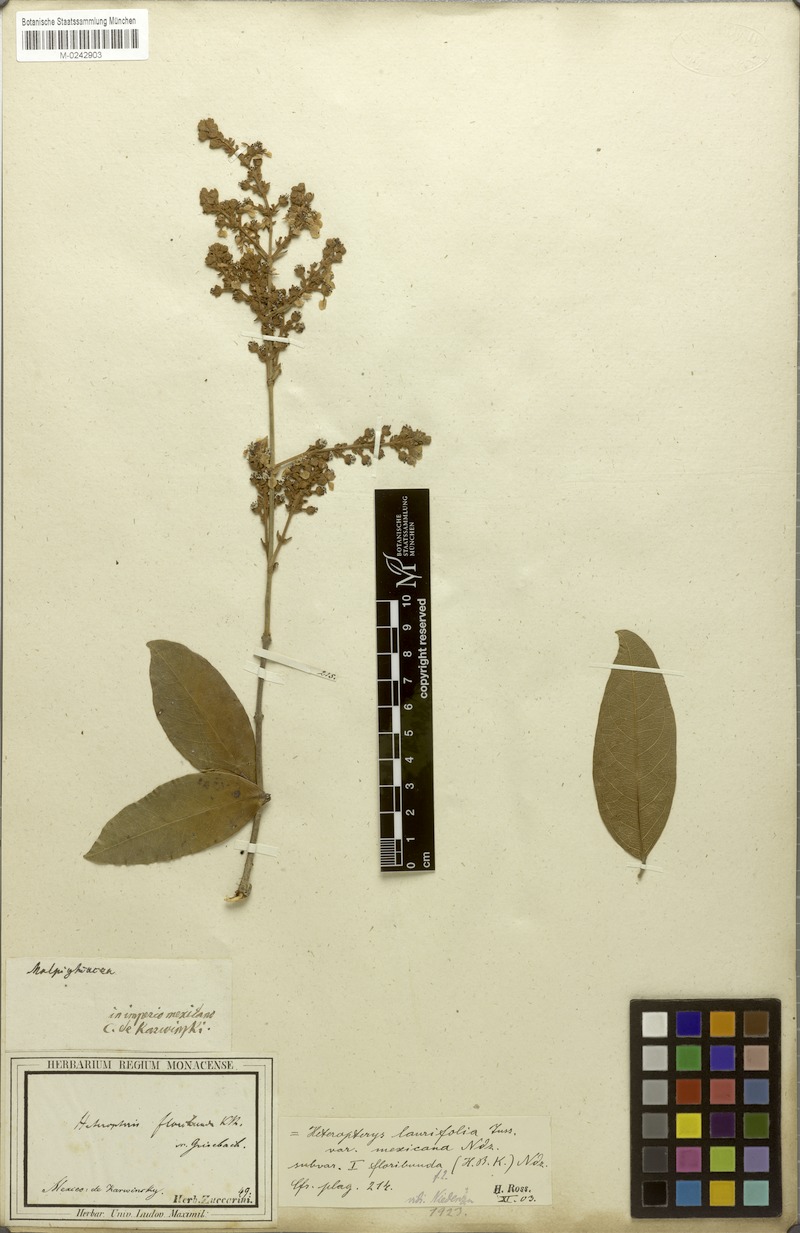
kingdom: Plantae
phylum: Tracheophyta
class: Magnoliopsida
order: Malpighiales
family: Malpighiaceae
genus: Heteropterys
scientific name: Heteropterys laurifolia
